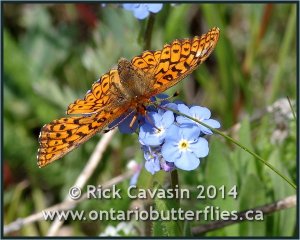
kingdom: Animalia
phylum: Arthropoda
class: Insecta
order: Lepidoptera
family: Nymphalidae
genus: Boloria
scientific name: Boloria kriemhild
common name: Relict Fritillary
